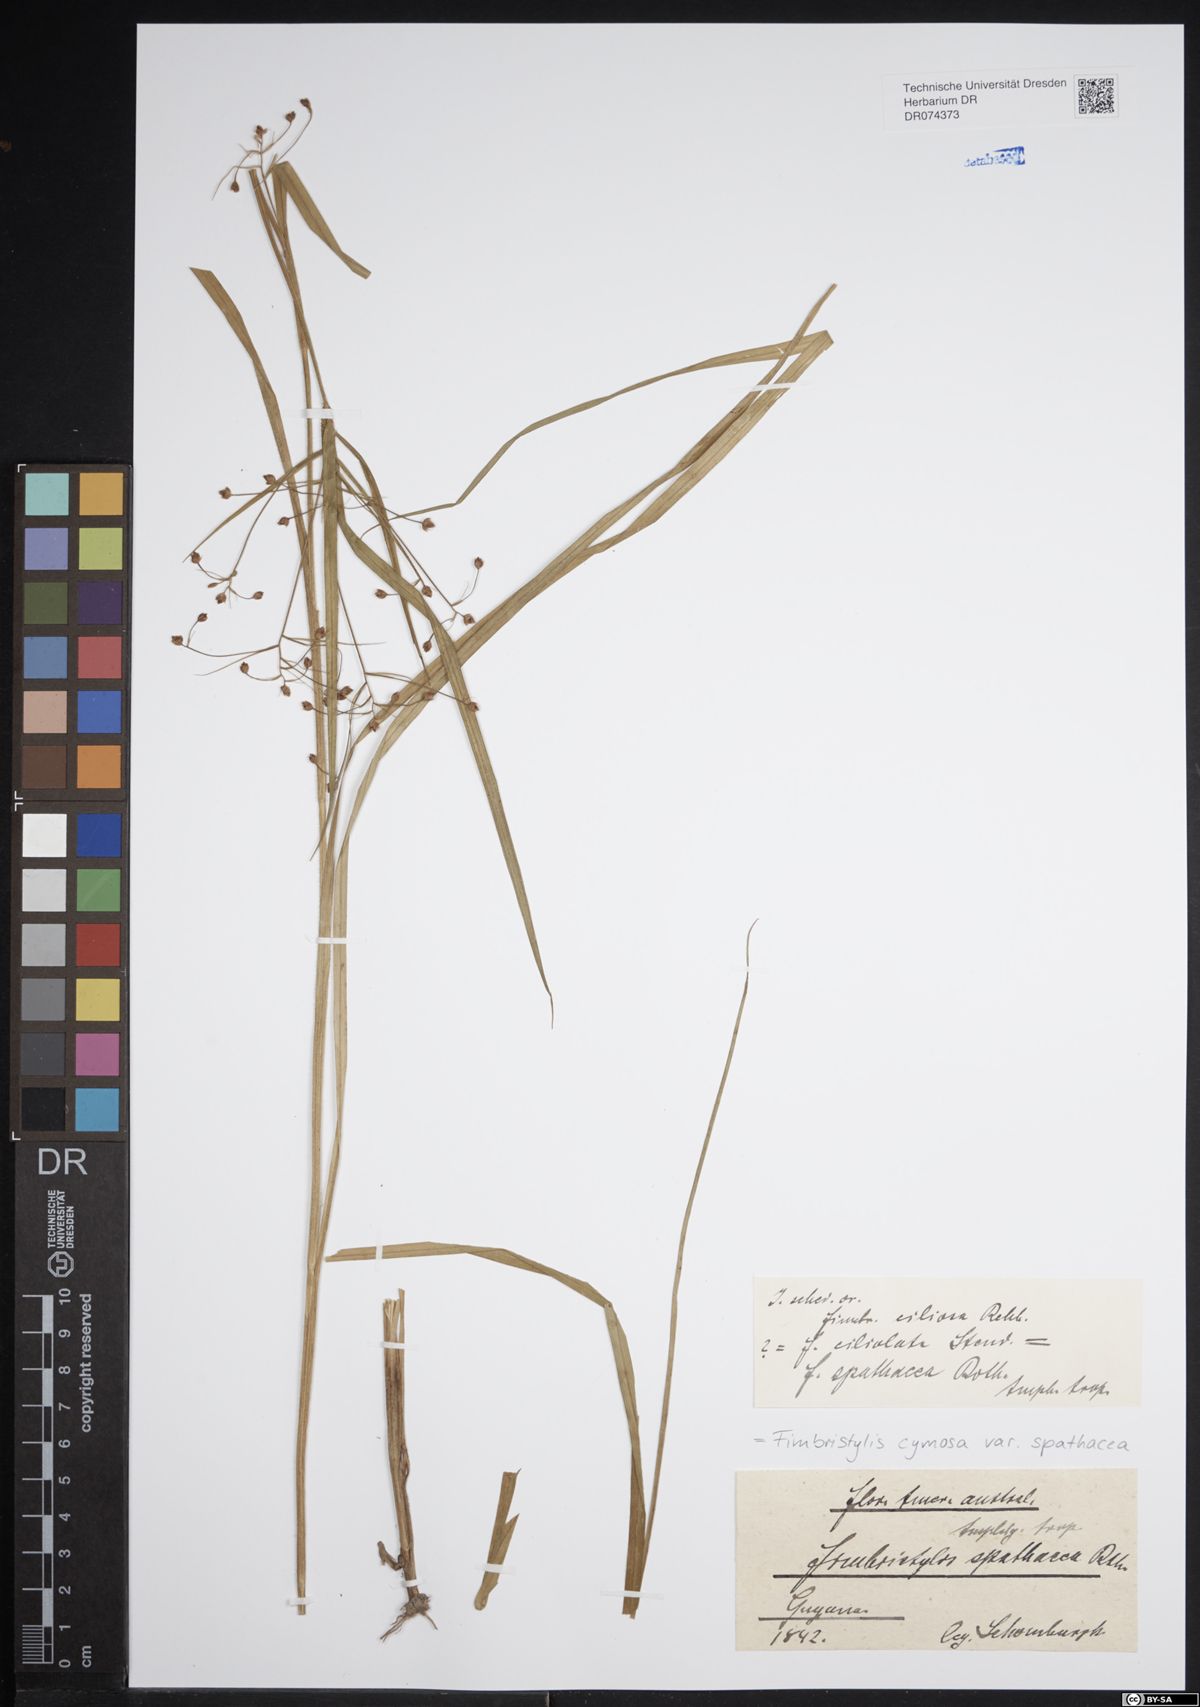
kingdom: Plantae
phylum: Tracheophyta
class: Liliopsida
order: Poales
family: Cyperaceae
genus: Fimbristylis
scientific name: Fimbristylis cymosa
